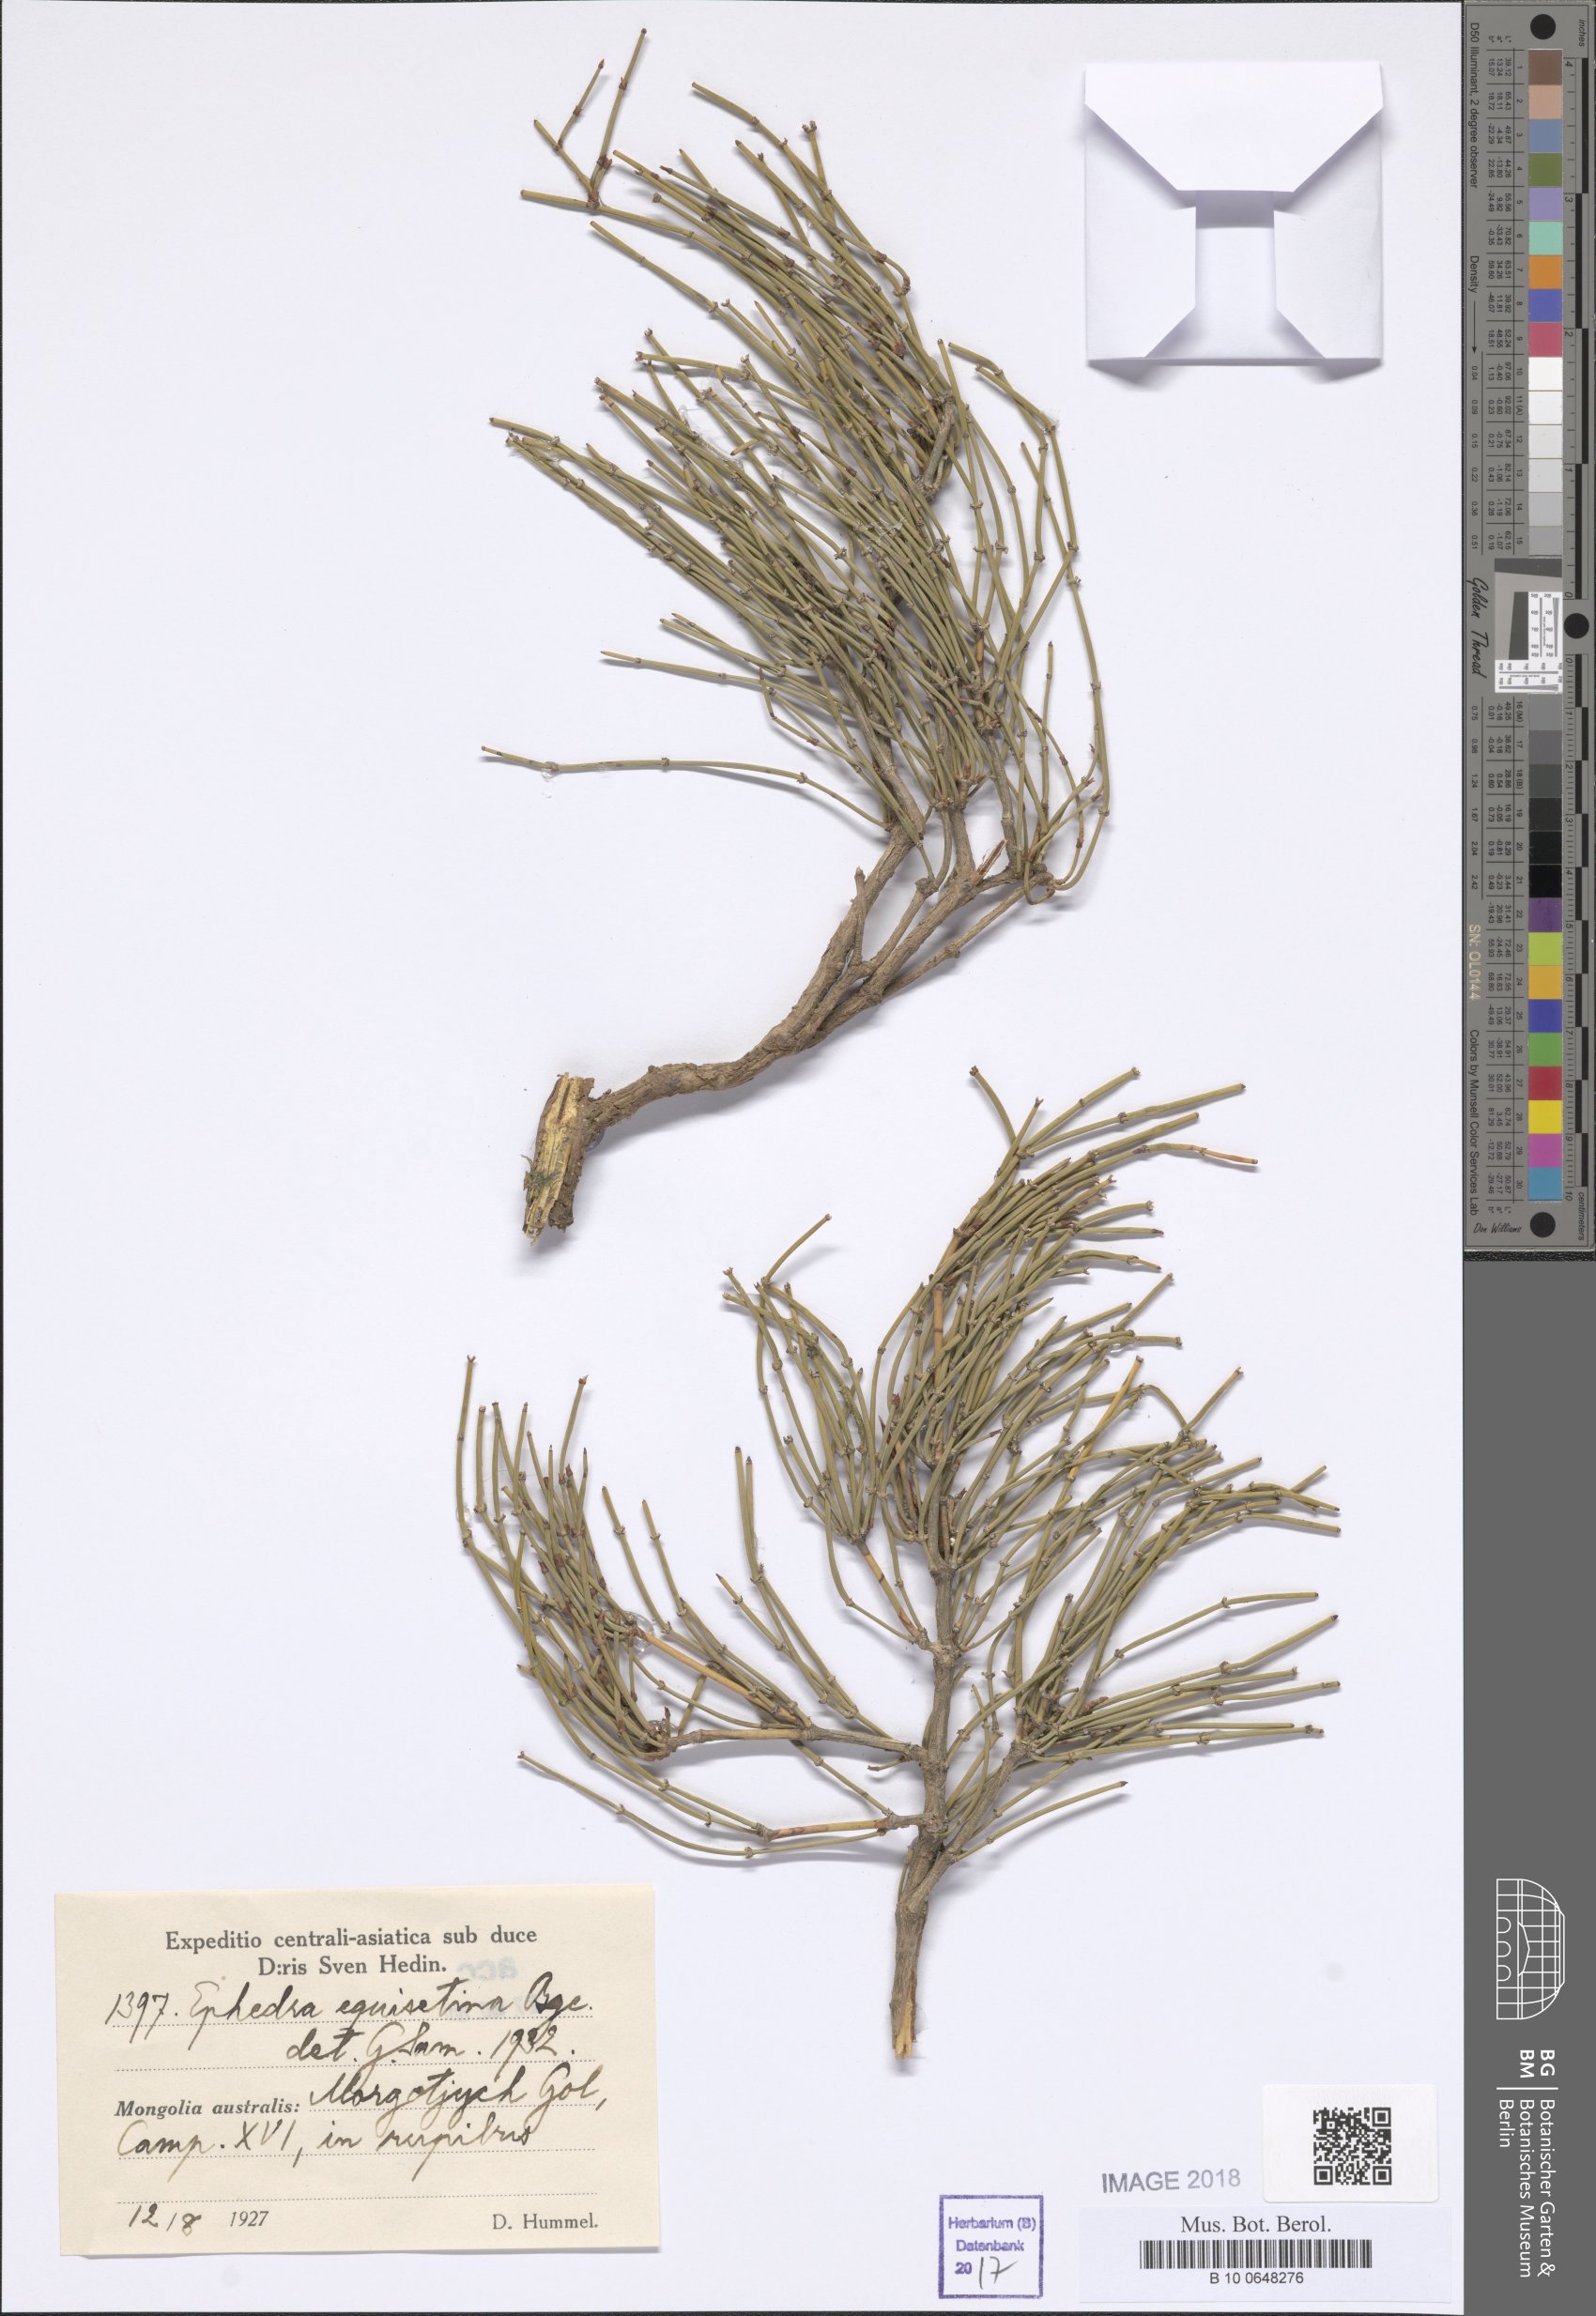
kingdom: Plantae
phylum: Tracheophyta
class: Gnetopsida
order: Ephedrales
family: Ephedraceae
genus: Ephedra
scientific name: Ephedra equisetina
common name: Mongolian ephedra
